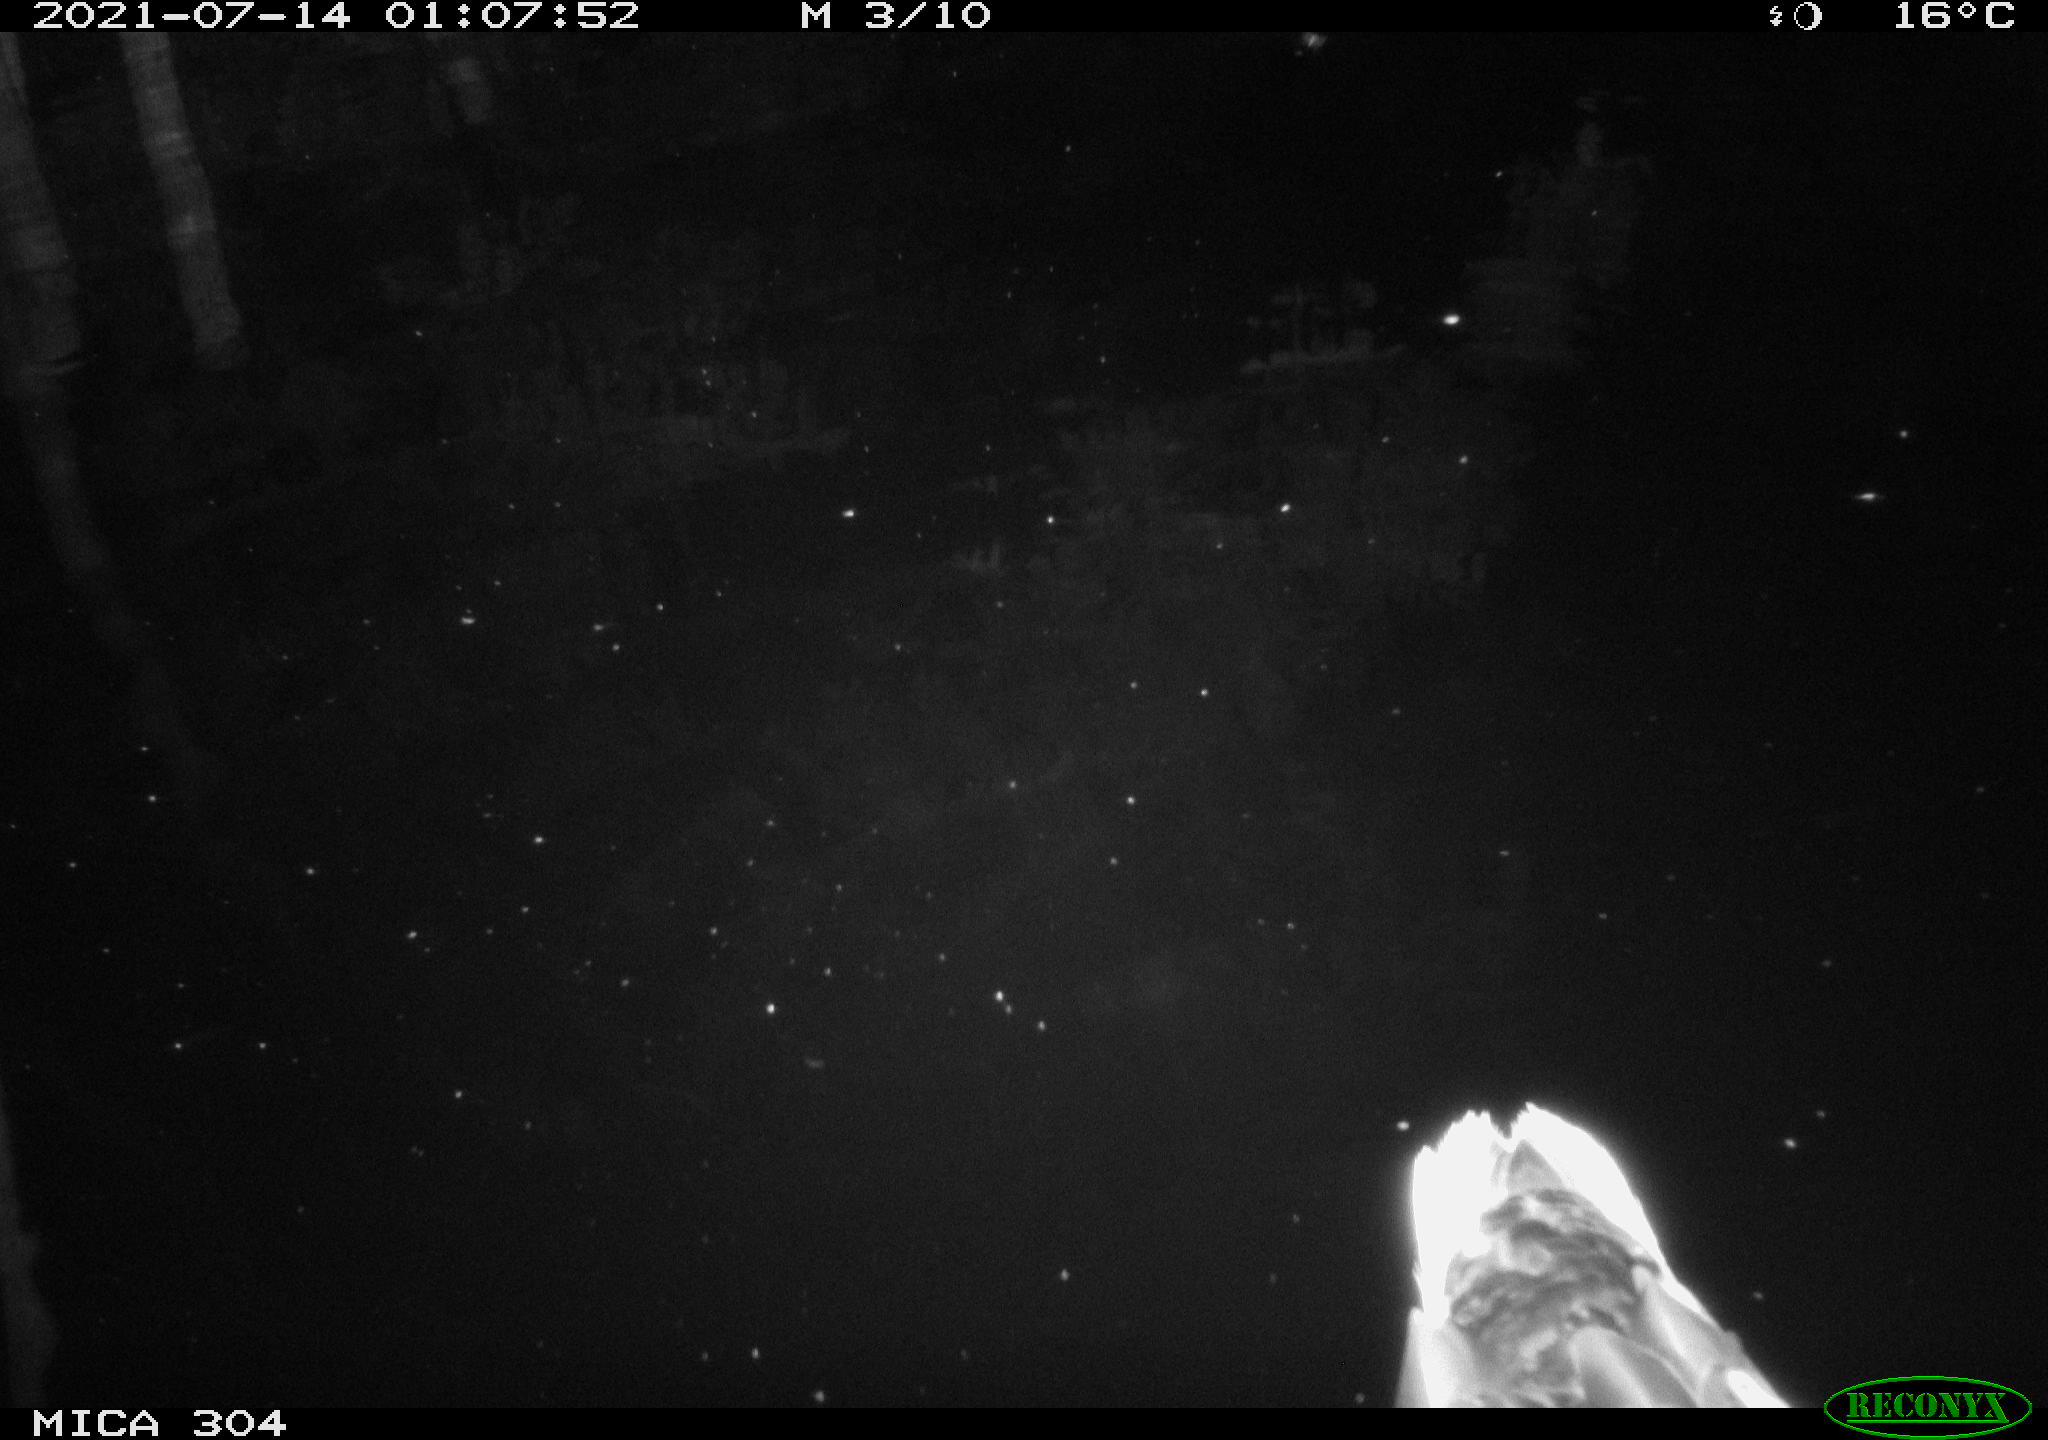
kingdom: Animalia
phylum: Chordata
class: Aves
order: Anseriformes
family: Anatidae
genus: Anas
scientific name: Anas platyrhynchos
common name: Mallard
